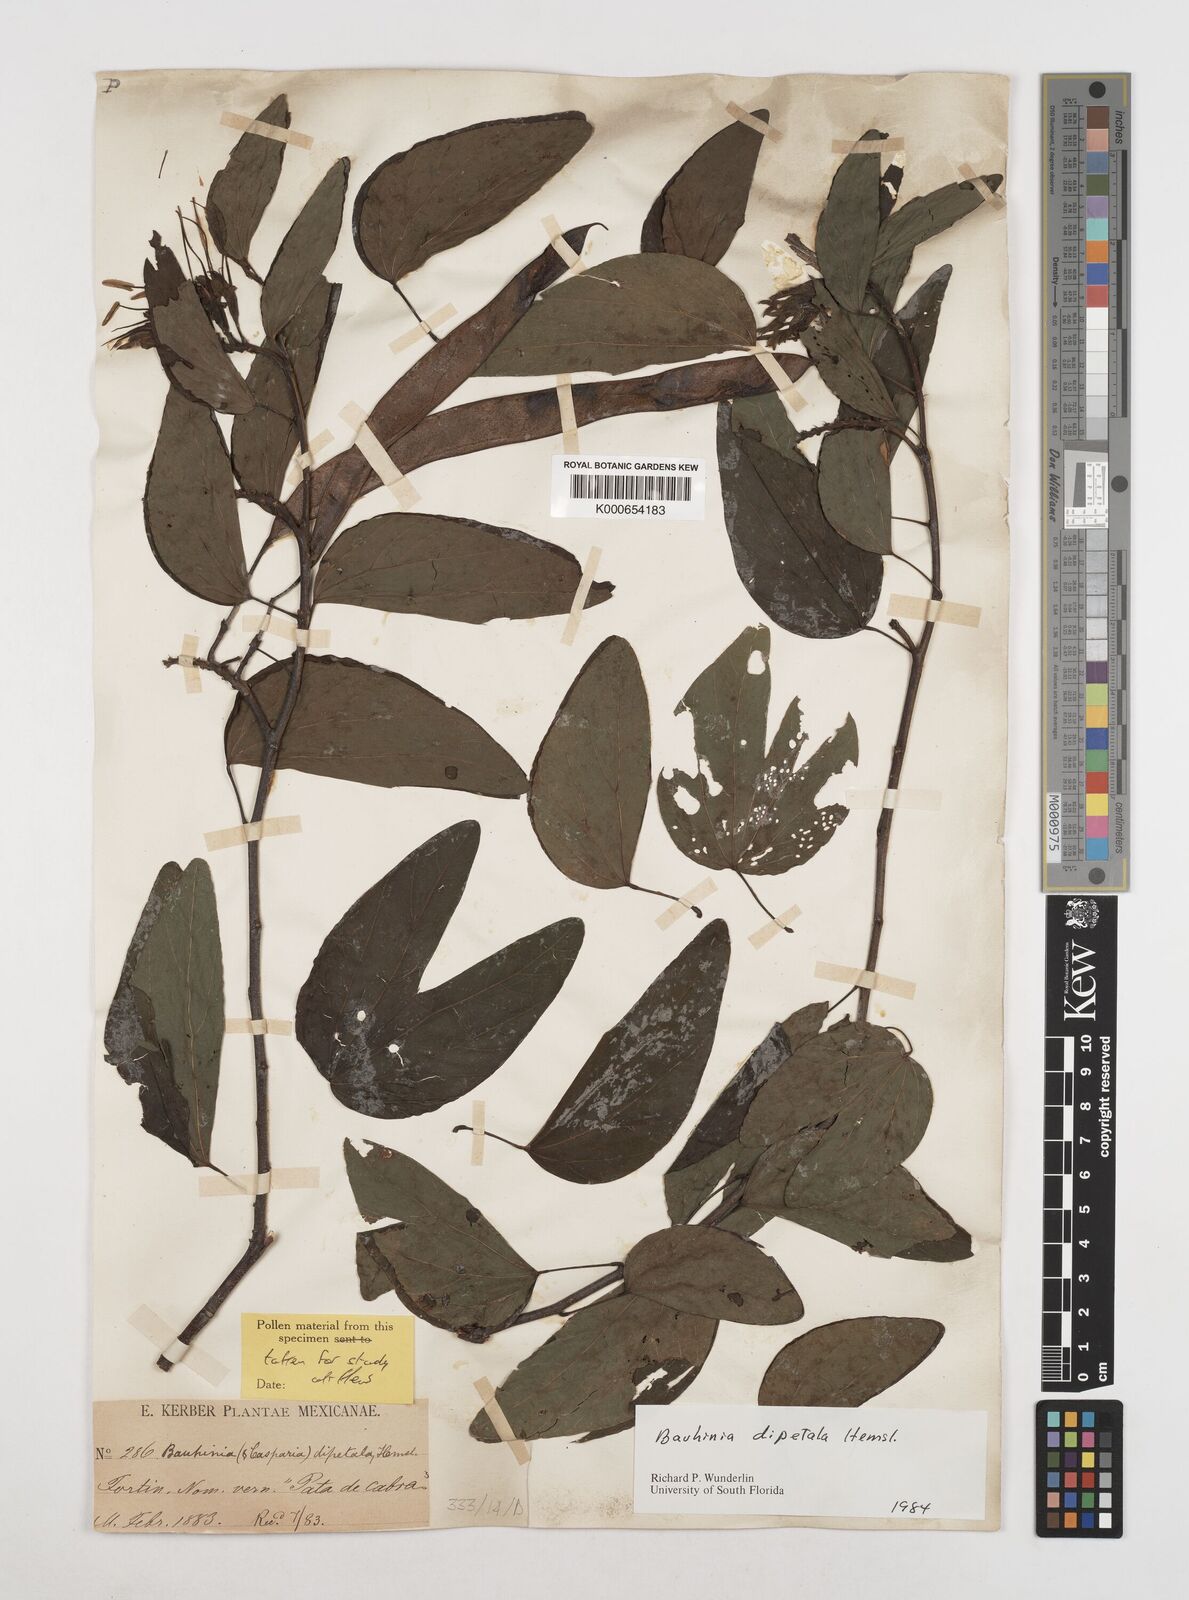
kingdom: Plantae
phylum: Tracheophyta
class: Magnoliopsida
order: Fabales
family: Fabaceae
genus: Bauhinia
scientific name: Bauhinia dipetala
